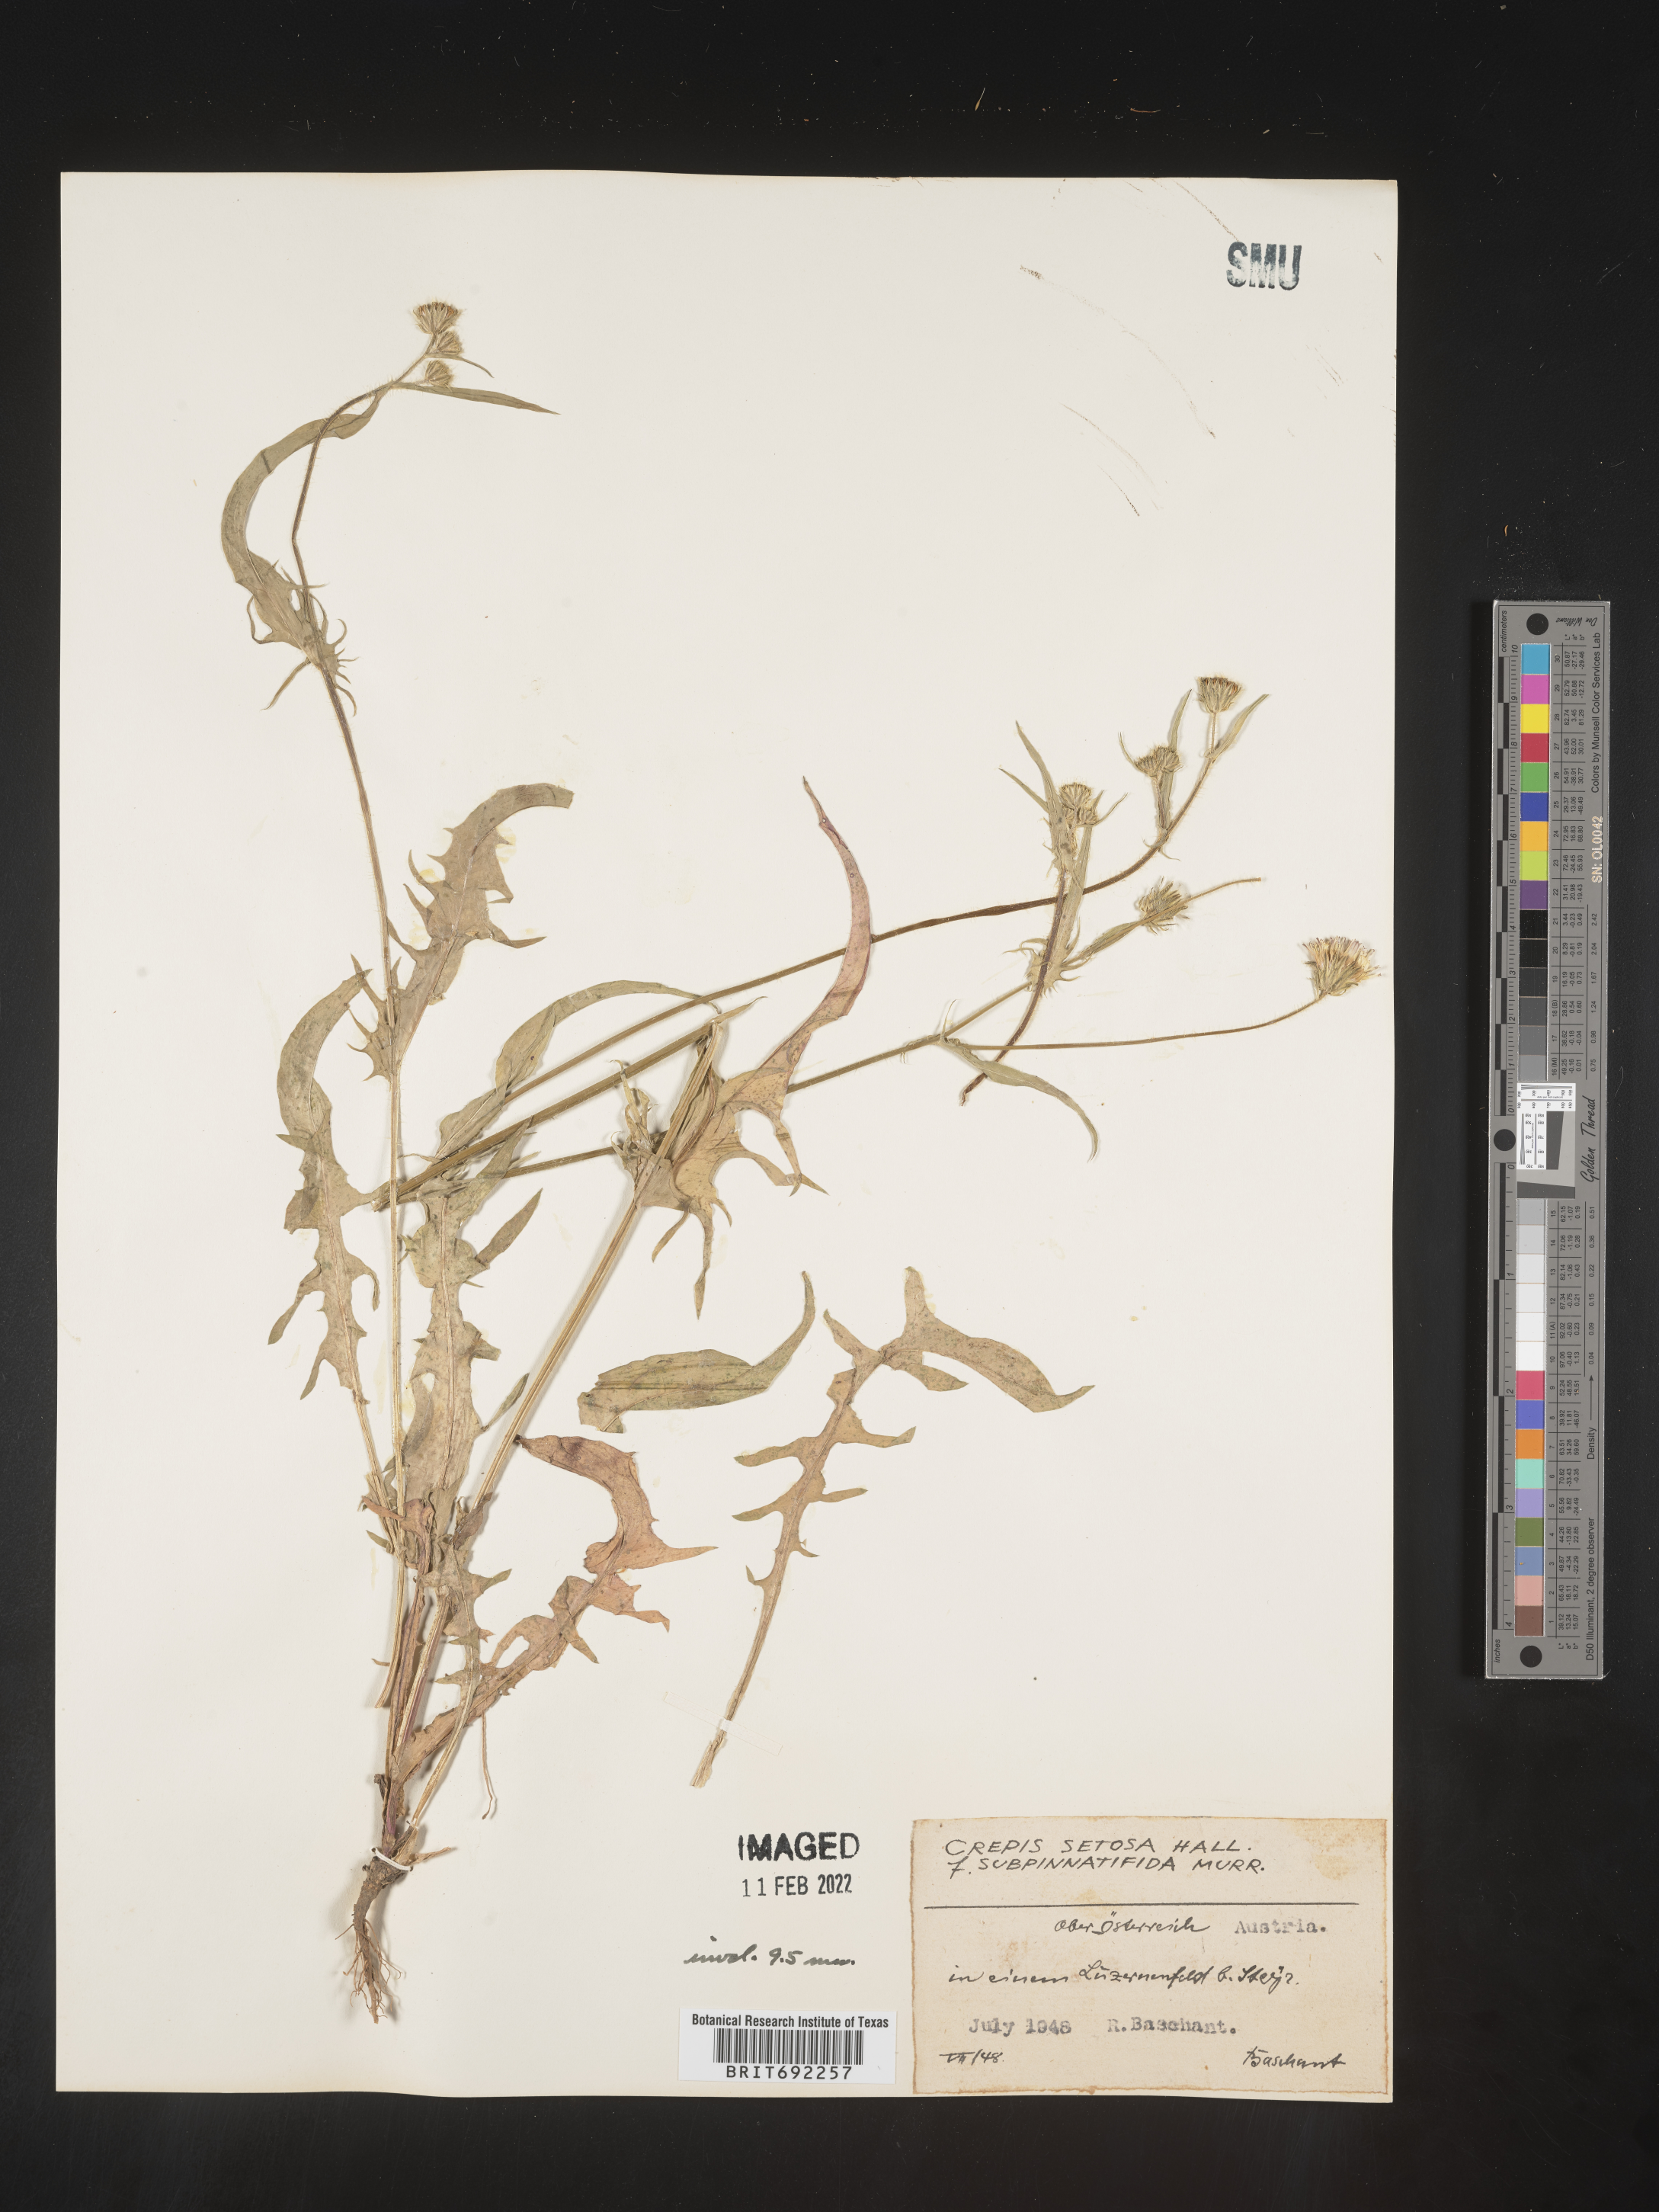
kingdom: Plantae
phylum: Tracheophyta
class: Magnoliopsida
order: Asterales
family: Asteraceae
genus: Crepis
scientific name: Crepis
